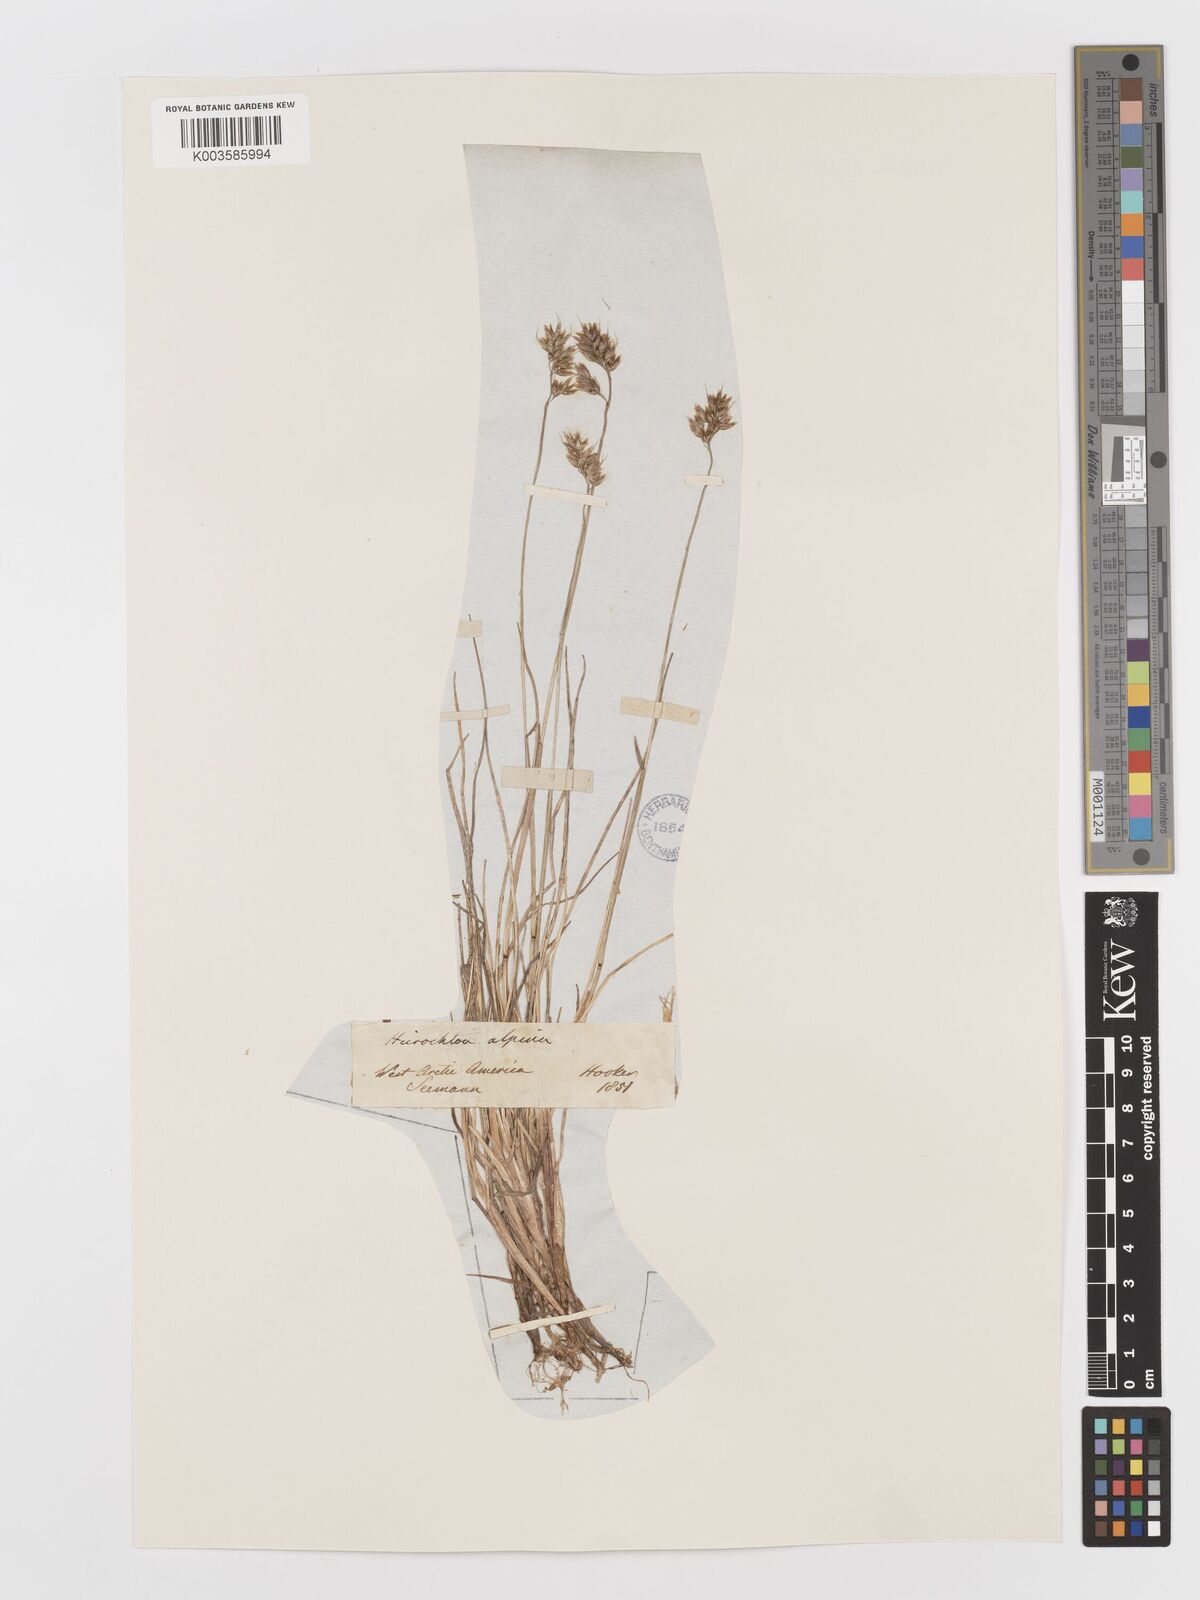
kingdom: Plantae
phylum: Tracheophyta
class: Liliopsida
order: Poales
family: Poaceae
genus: Anthoxanthum
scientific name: Anthoxanthum monticola
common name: Alpine sweetgrass
